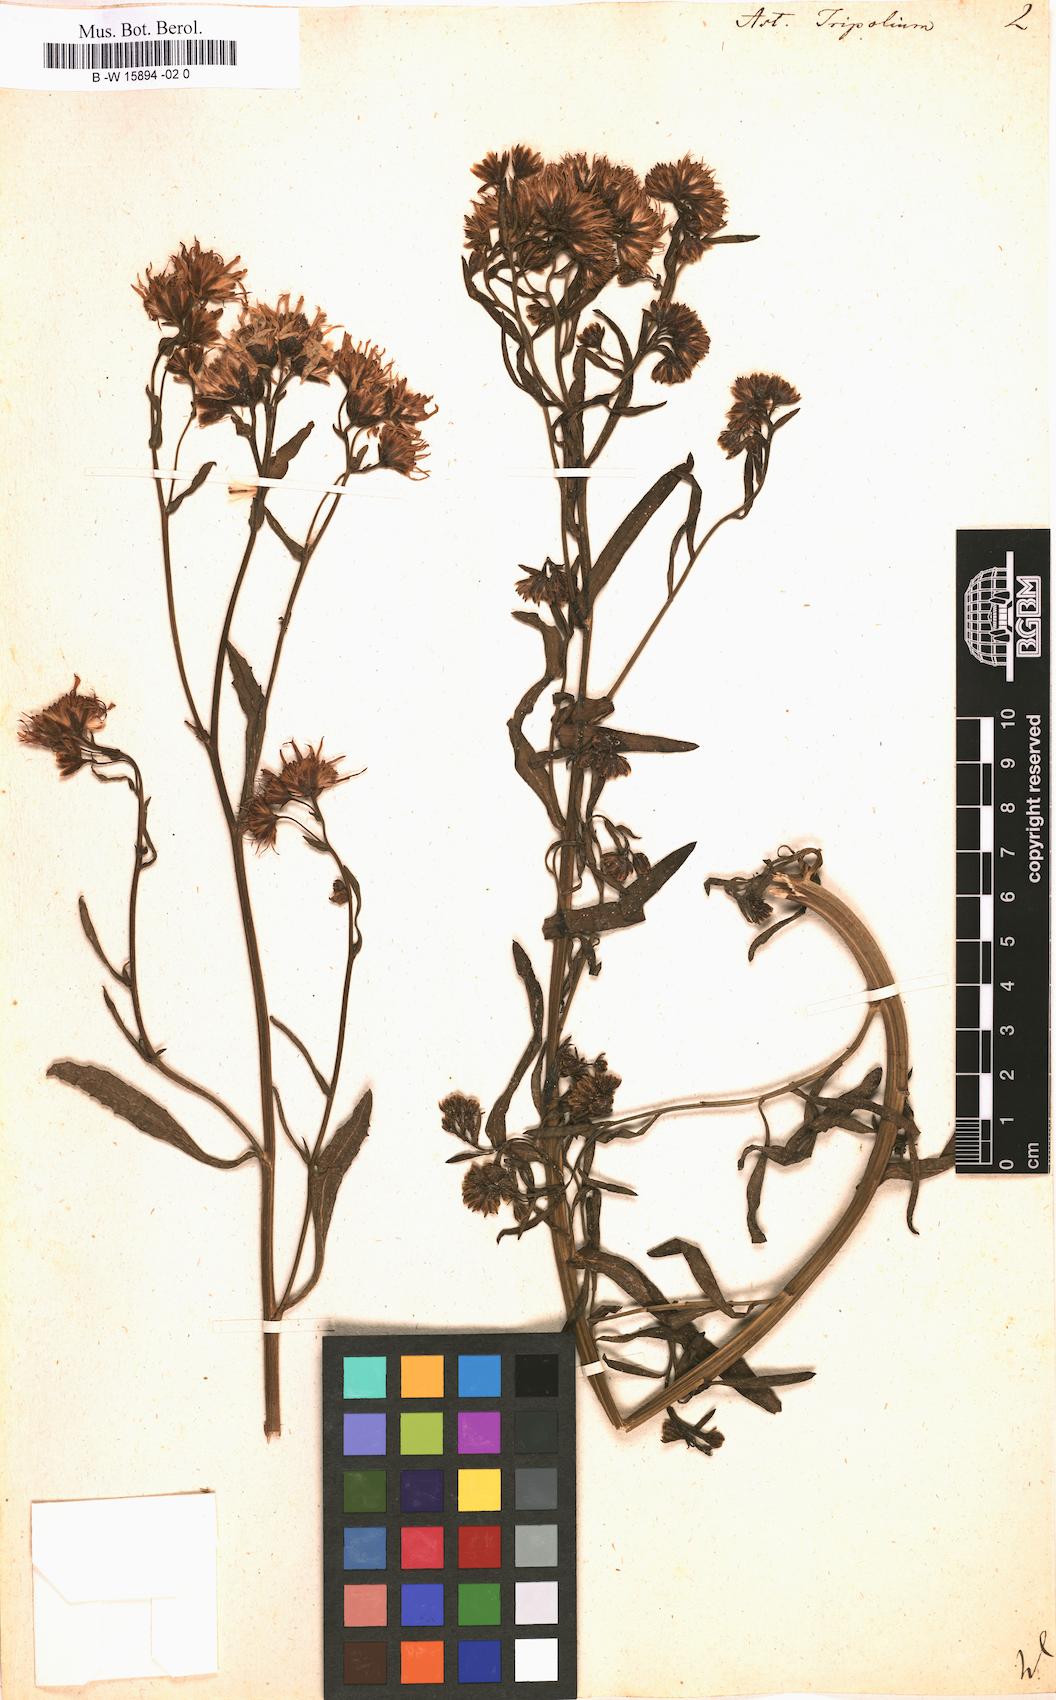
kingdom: Plantae
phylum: Tracheophyta
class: Magnoliopsida
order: Asterales
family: Asteraceae
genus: Tripolium
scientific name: Tripolium pannonicum
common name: Sea aster
